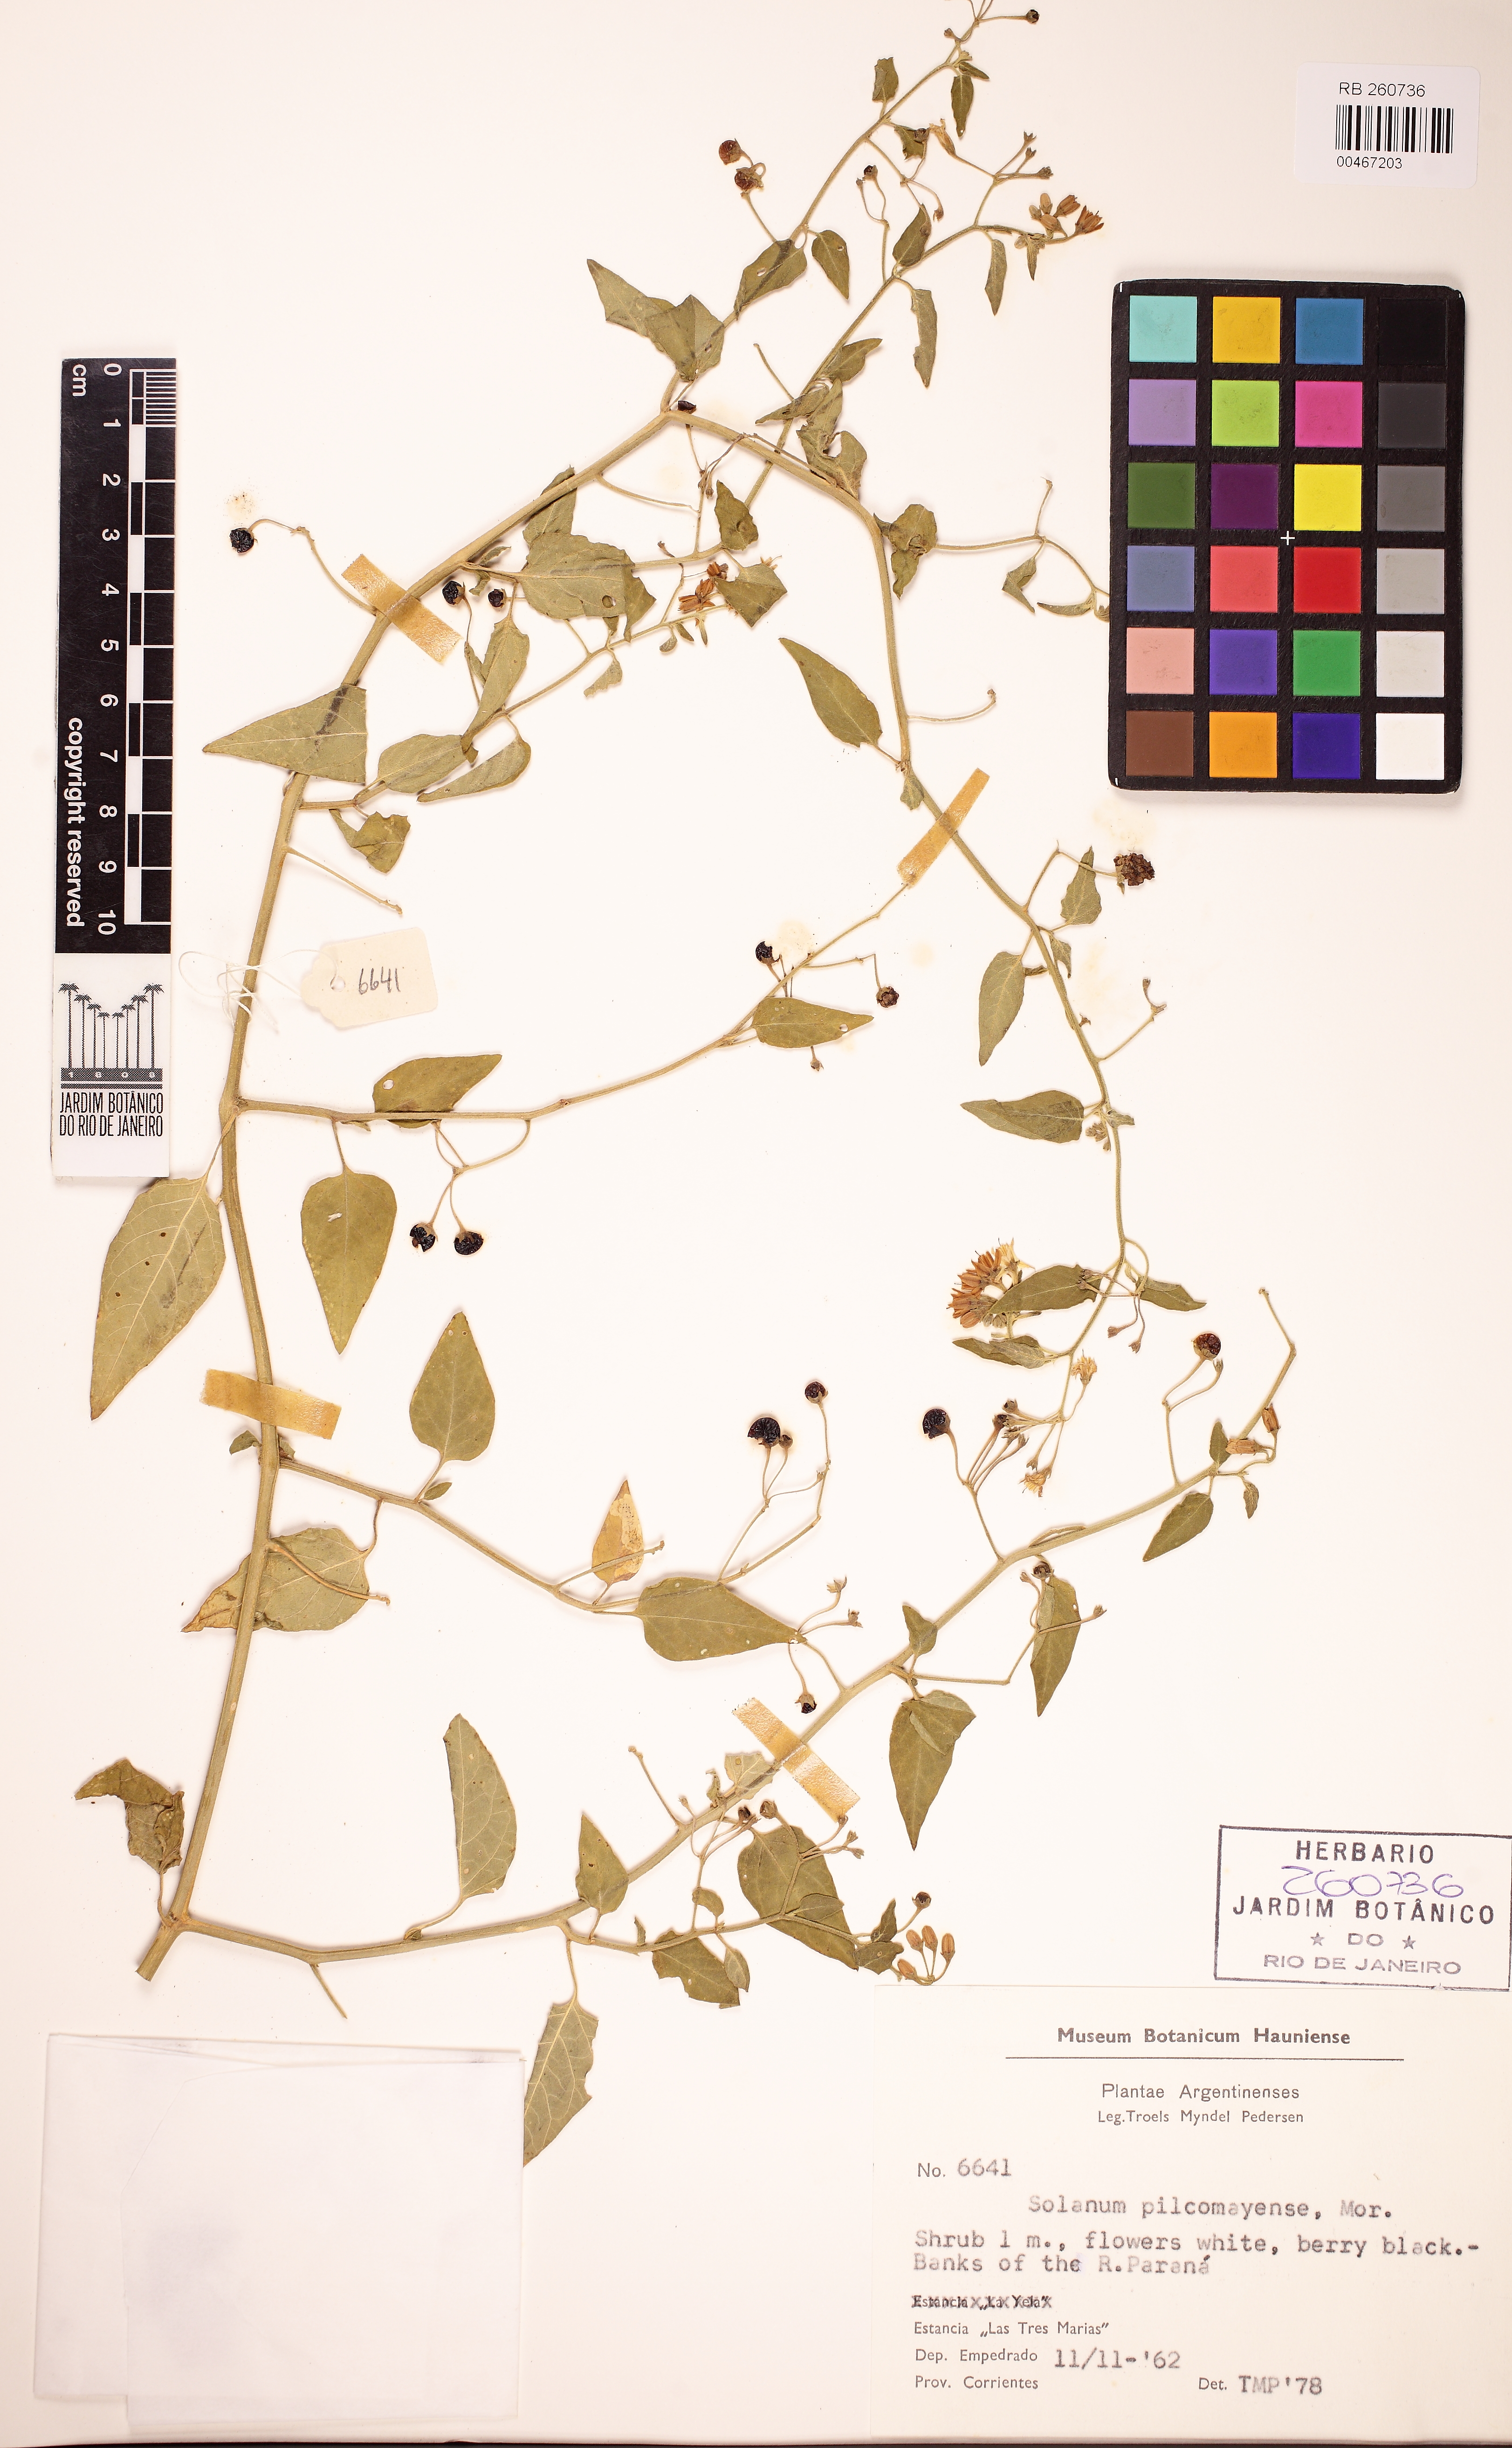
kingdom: Plantae
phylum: Tracheophyta
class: Magnoliopsida
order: Solanales
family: Solanaceae
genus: Solanum
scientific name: Solanum pilcomayense
